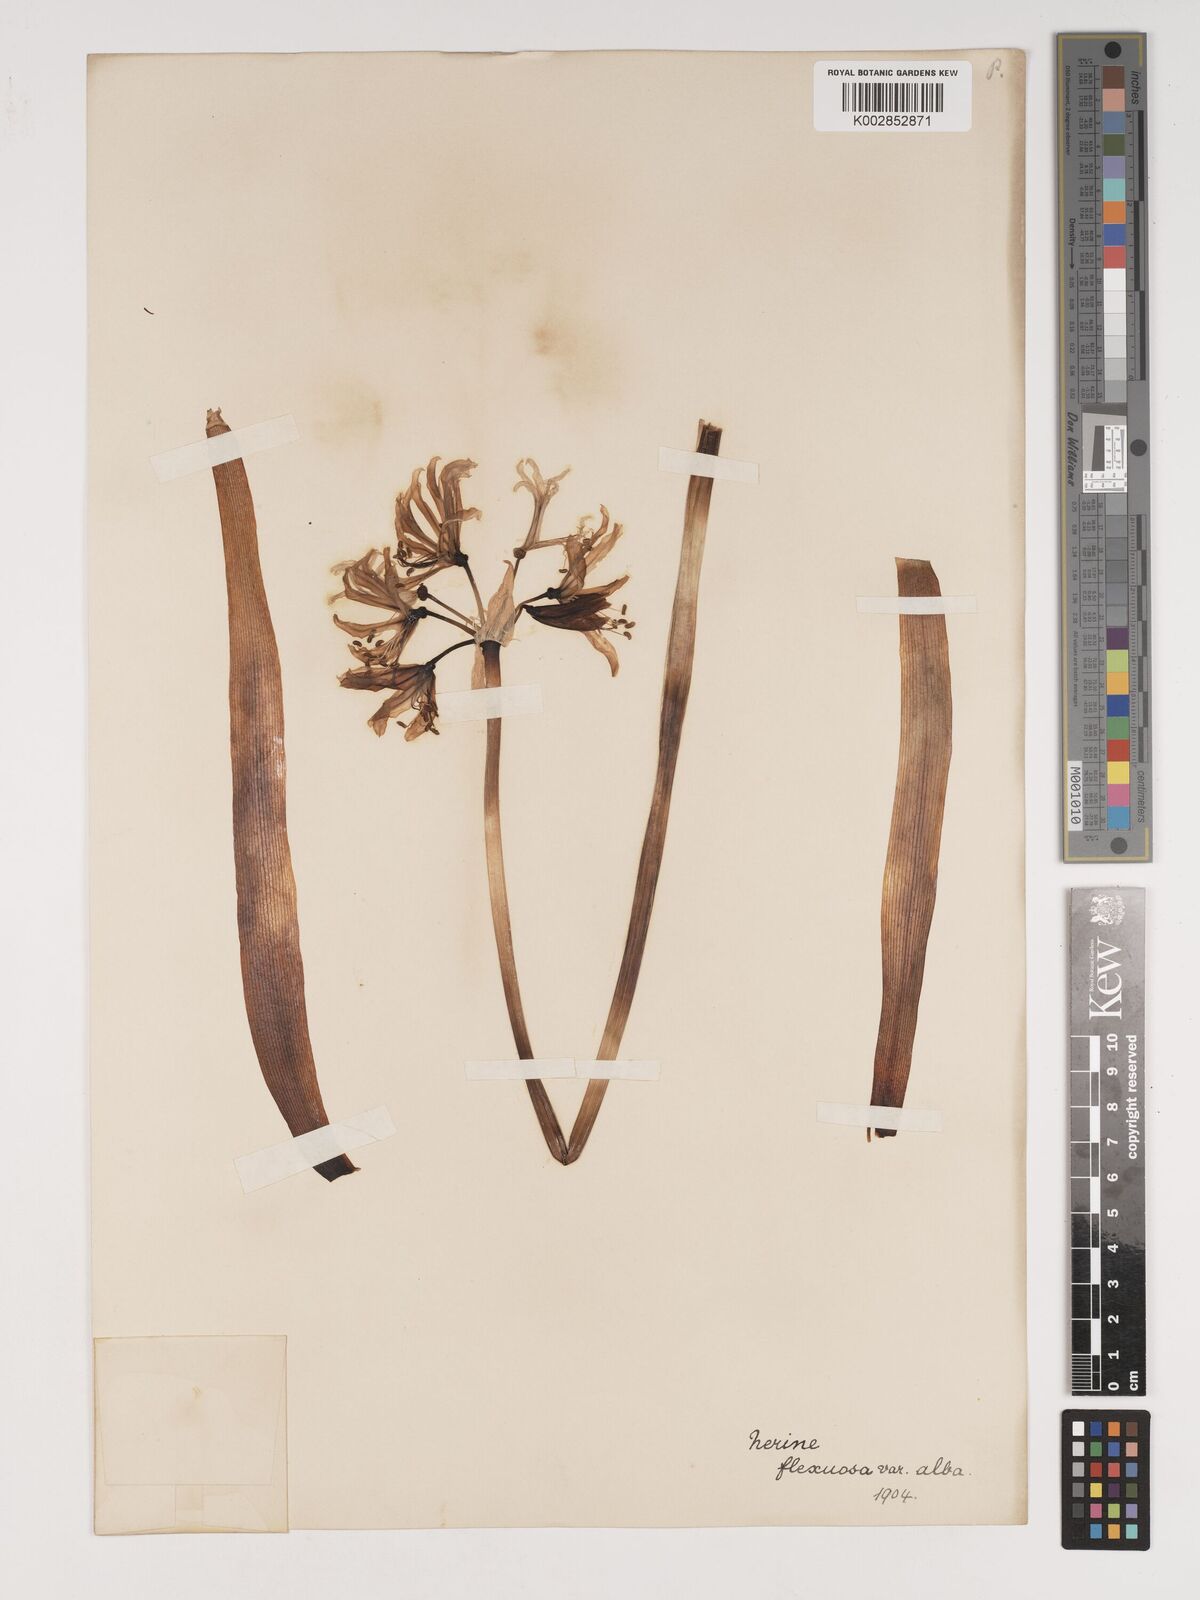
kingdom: Plantae
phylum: Tracheophyta
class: Liliopsida
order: Asparagales
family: Amaryllidaceae
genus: Nerine
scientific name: Nerine undulata
